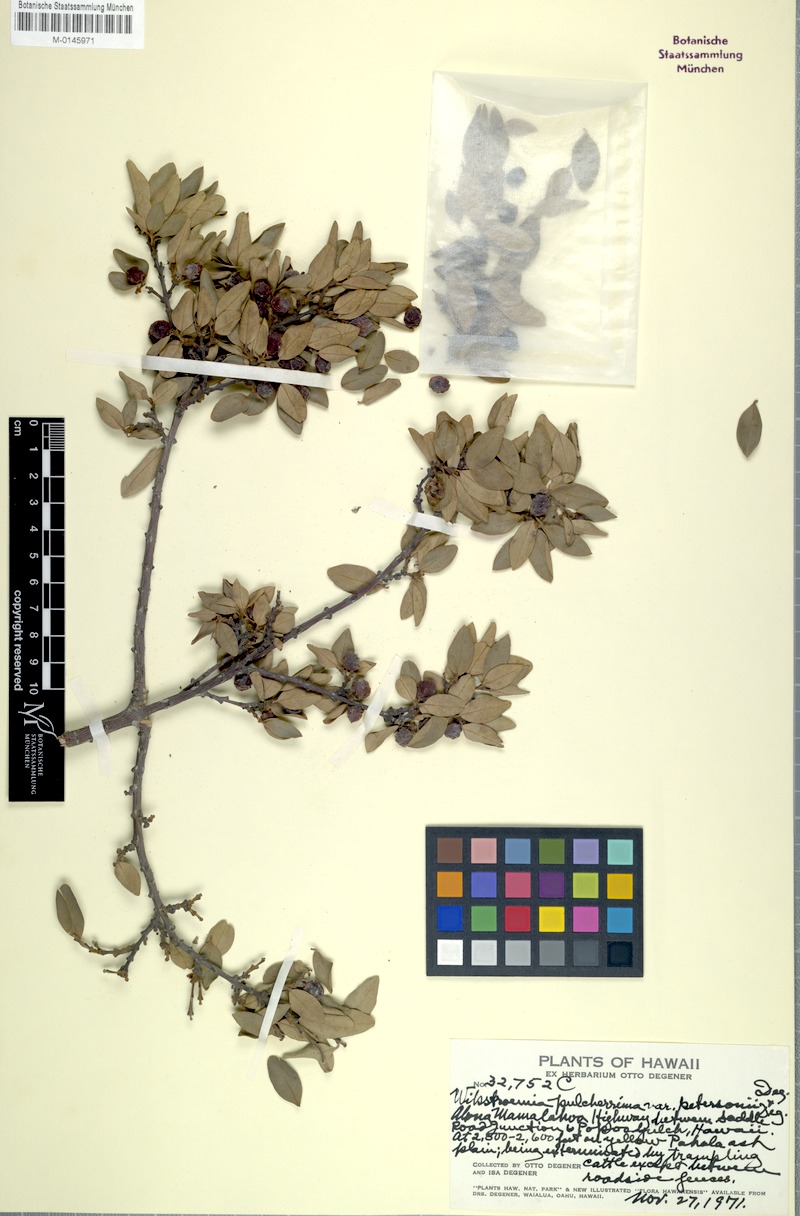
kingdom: Plantae
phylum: Tracheophyta
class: Magnoliopsida
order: Malvales
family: Thymelaeaceae
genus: Wikstroemia
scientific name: Wikstroemia pulcherrima
